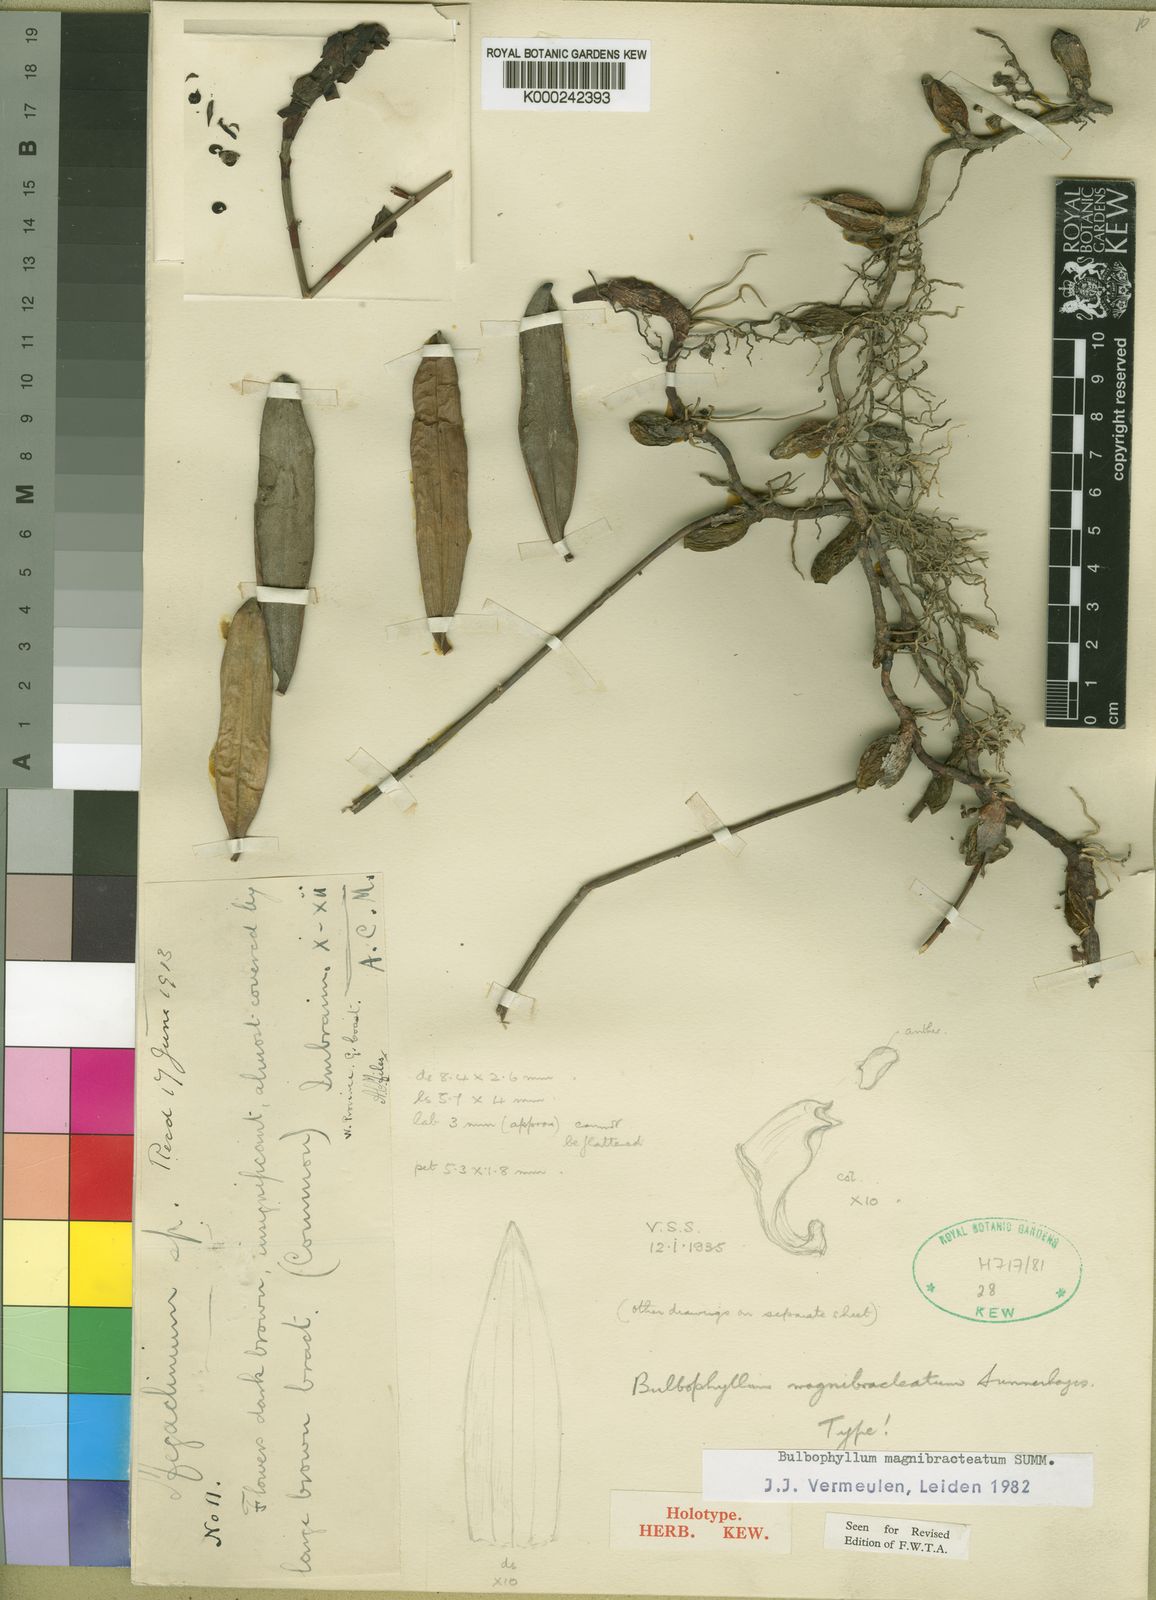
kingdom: Plantae
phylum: Tracheophyta
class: Liliopsida
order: Asparagales
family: Orchidaceae
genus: Bulbophyllum
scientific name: Bulbophyllum magnibracteatum
